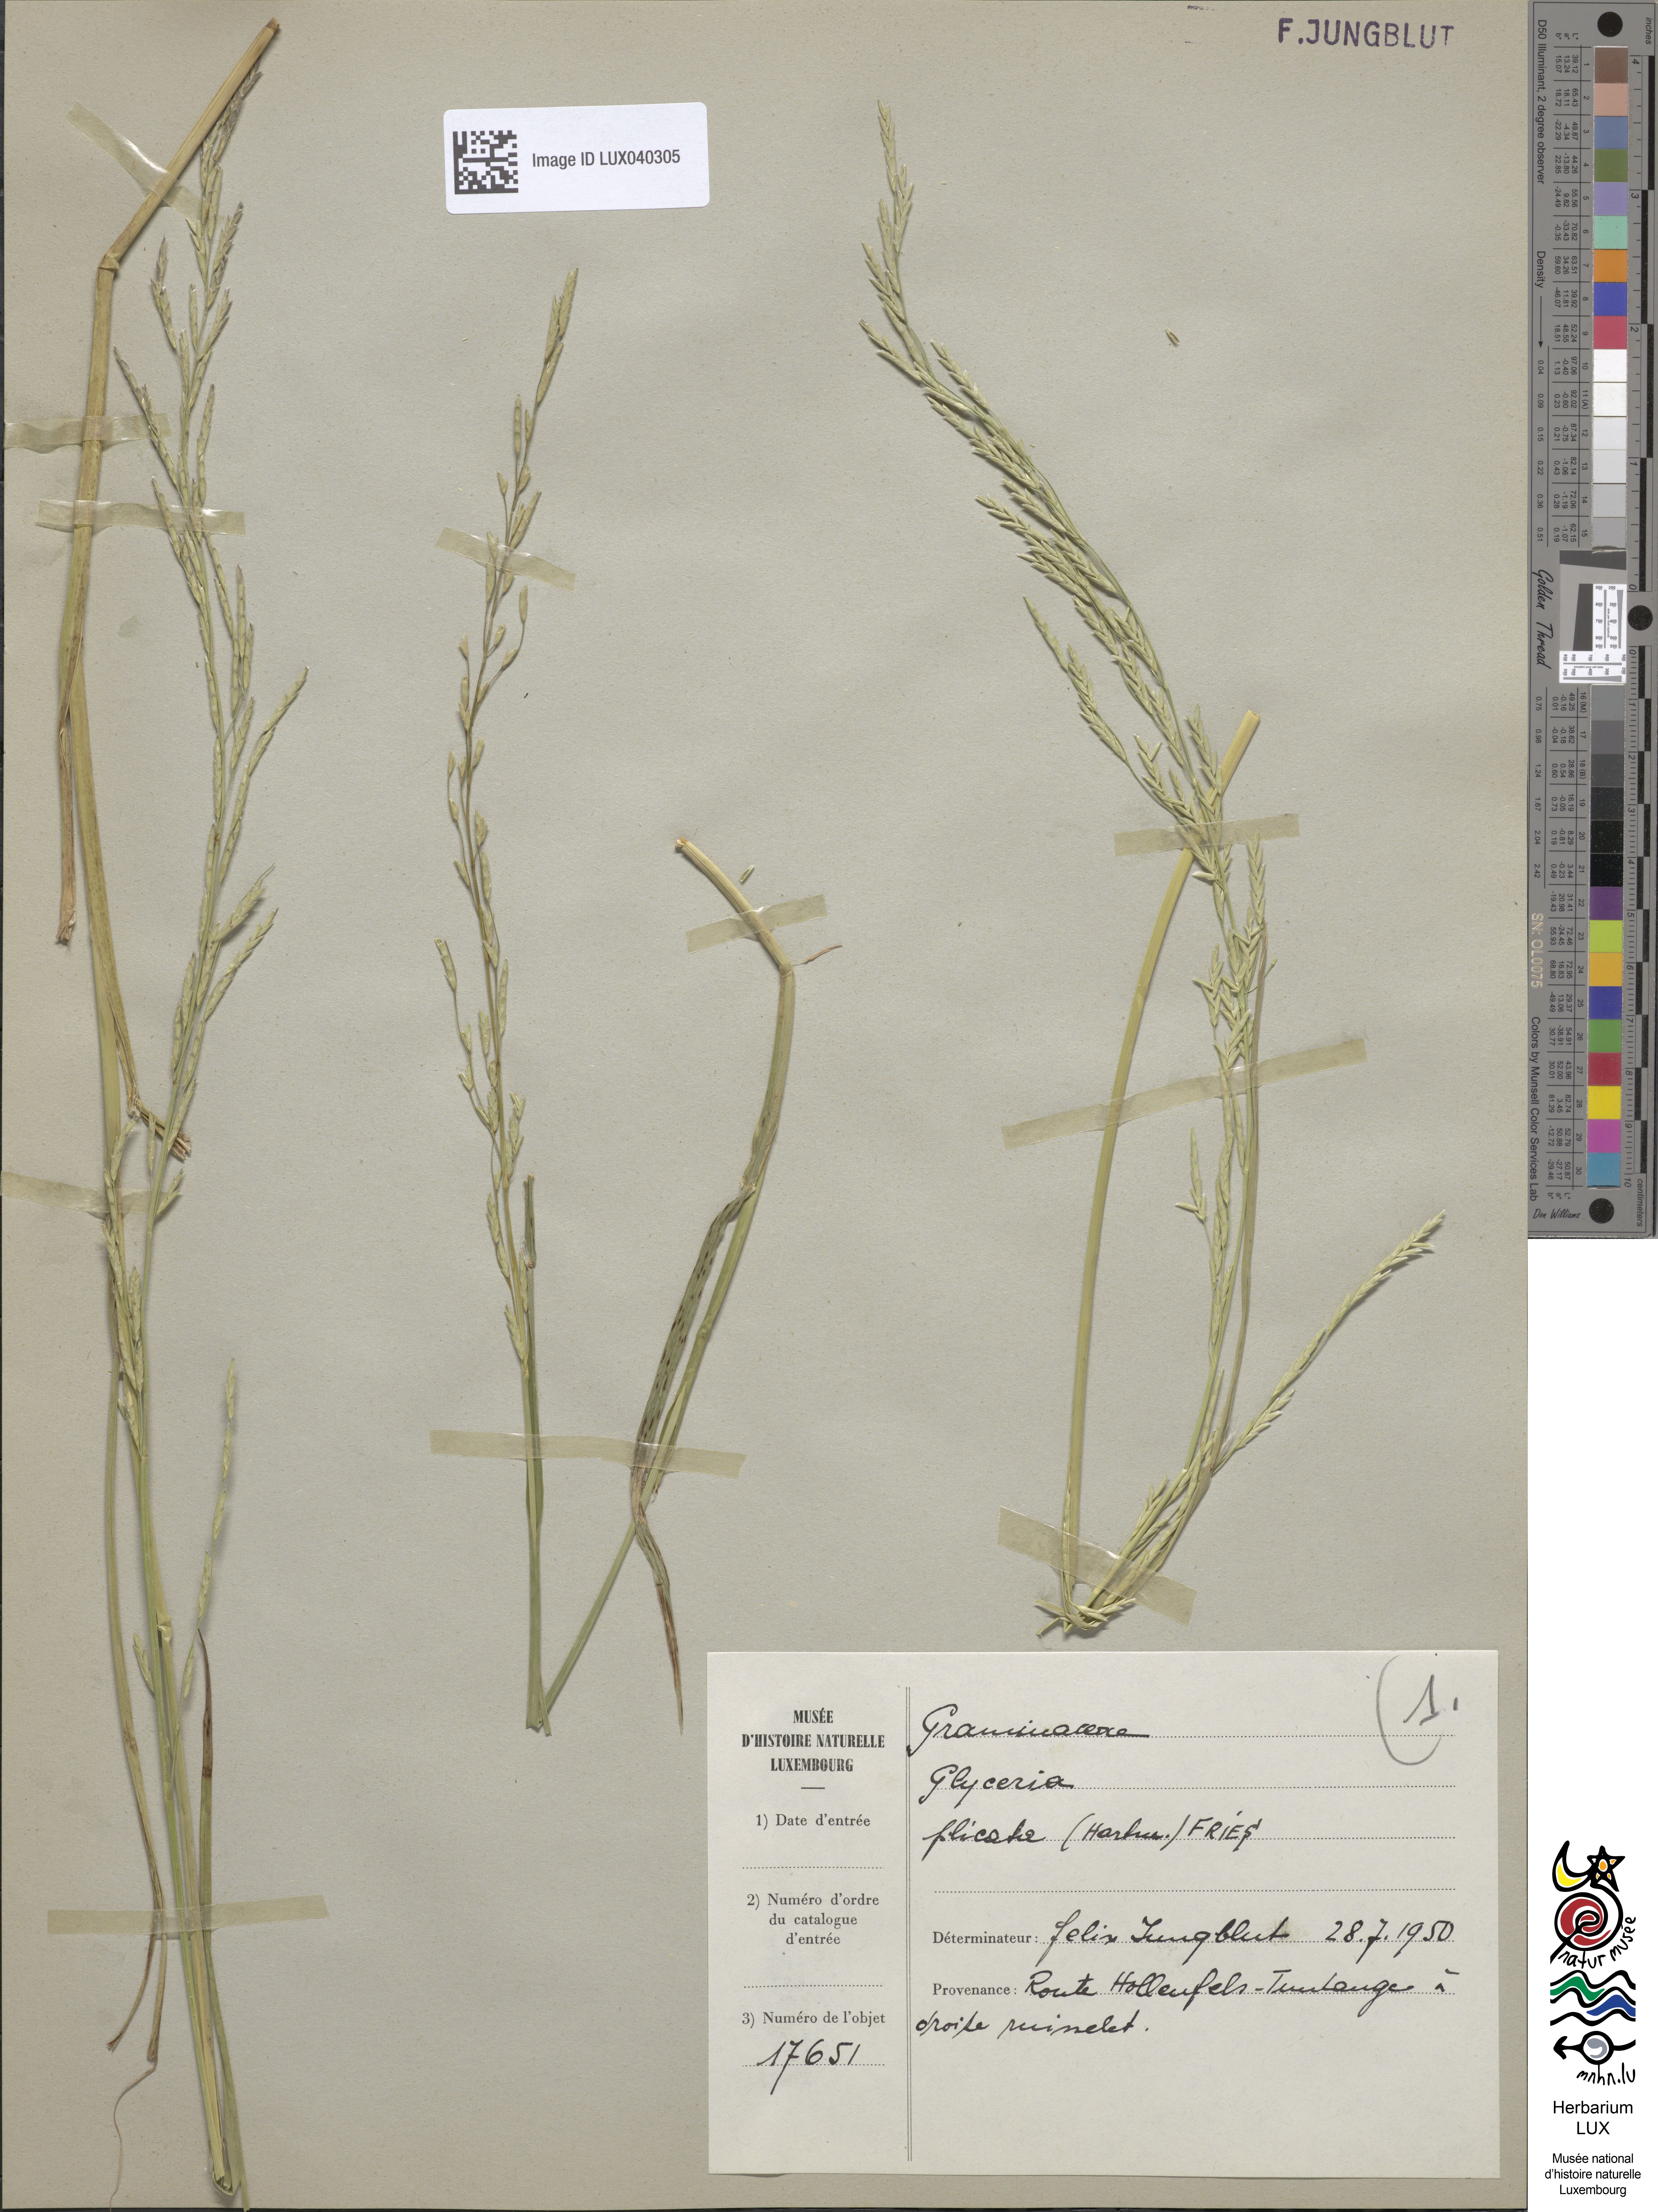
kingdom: Plantae
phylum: Tracheophyta
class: Liliopsida
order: Poales
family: Poaceae
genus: Glyceria
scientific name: Glyceria notata
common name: Plicate sweet-grass
